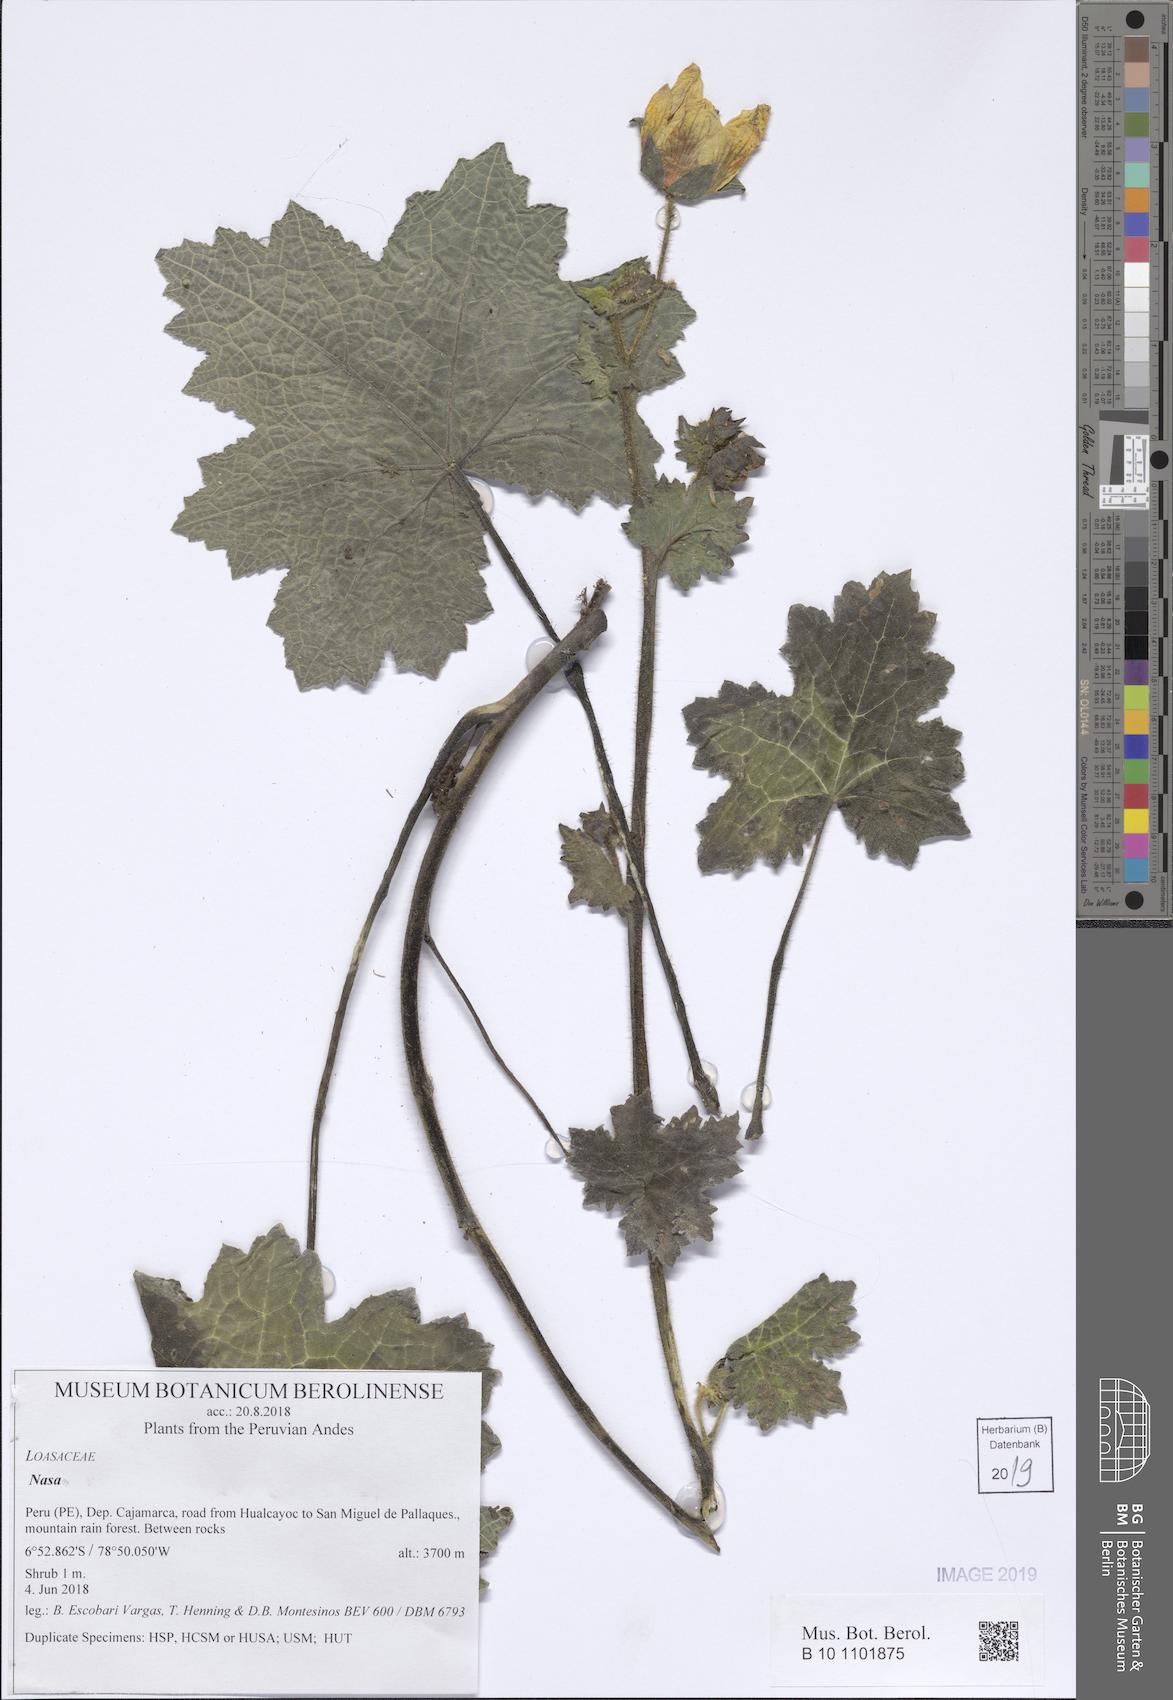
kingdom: Plantae
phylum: Tracheophyta
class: Magnoliopsida
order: Cornales
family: Loasaceae
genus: Nasa
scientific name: Nasa ranunculifolia
